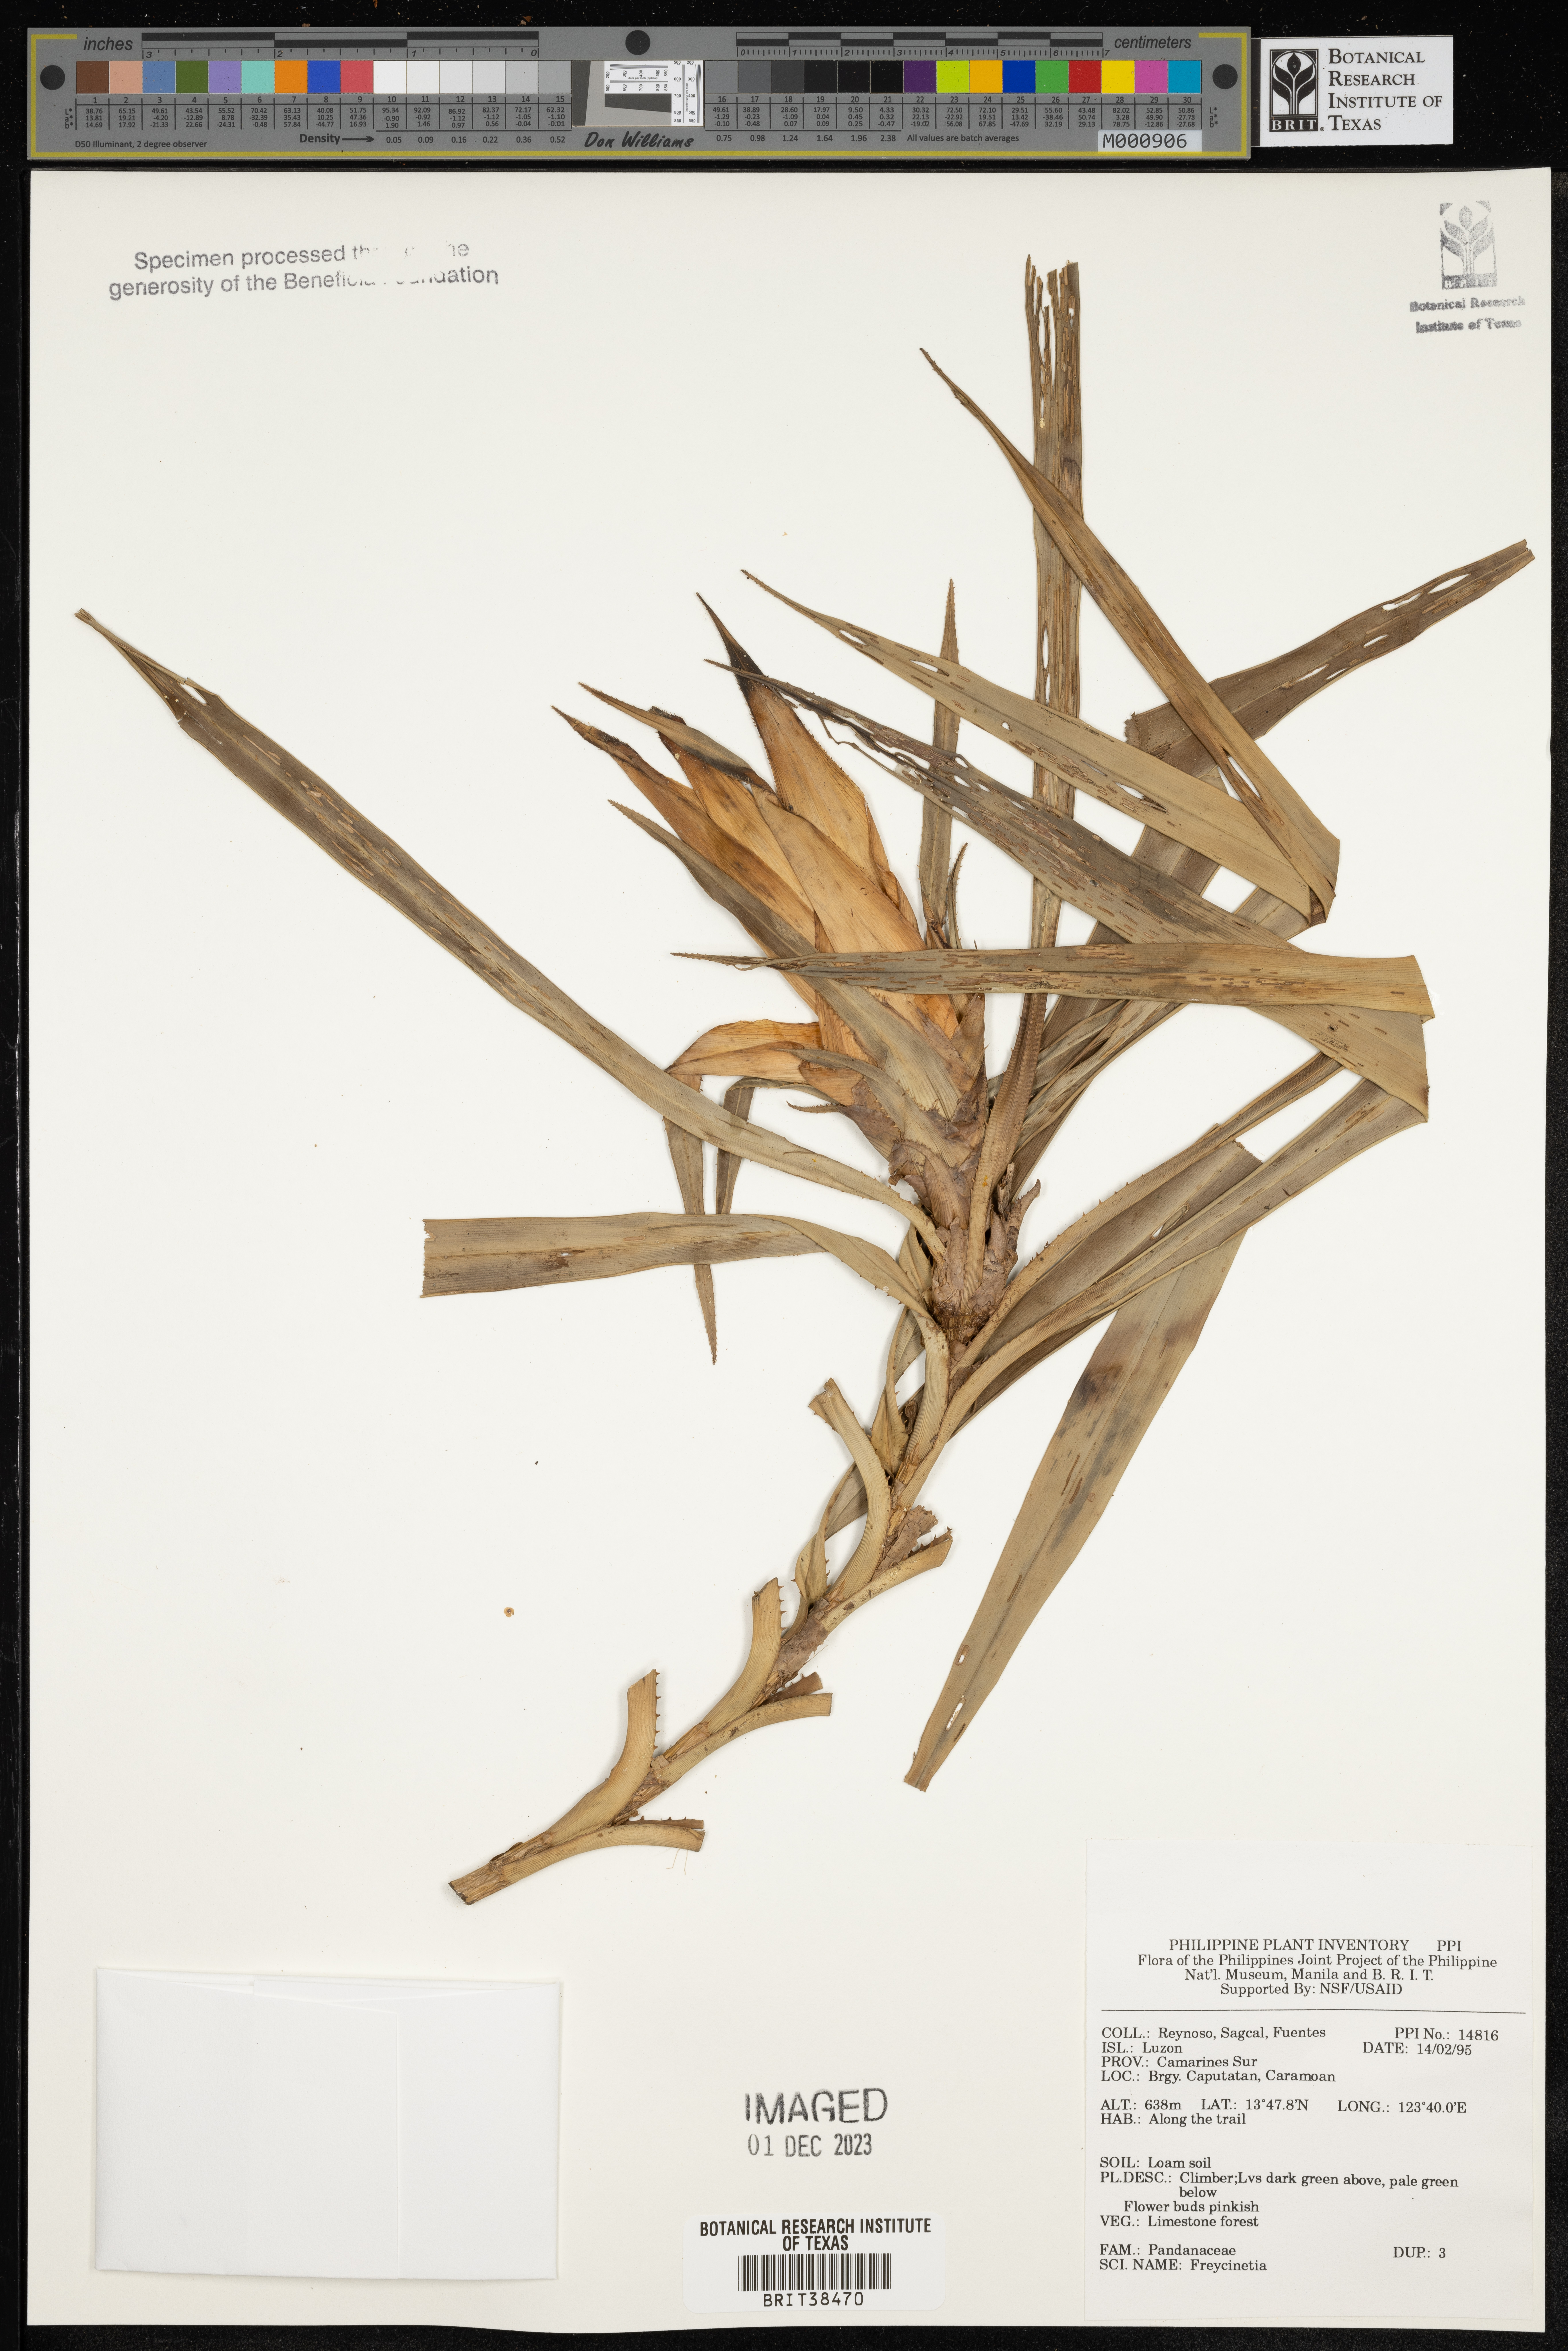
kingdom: Plantae
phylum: Tracheophyta
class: Liliopsida
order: Pandanales
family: Pandanaceae
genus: Freycinetia
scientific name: Freycinetia
